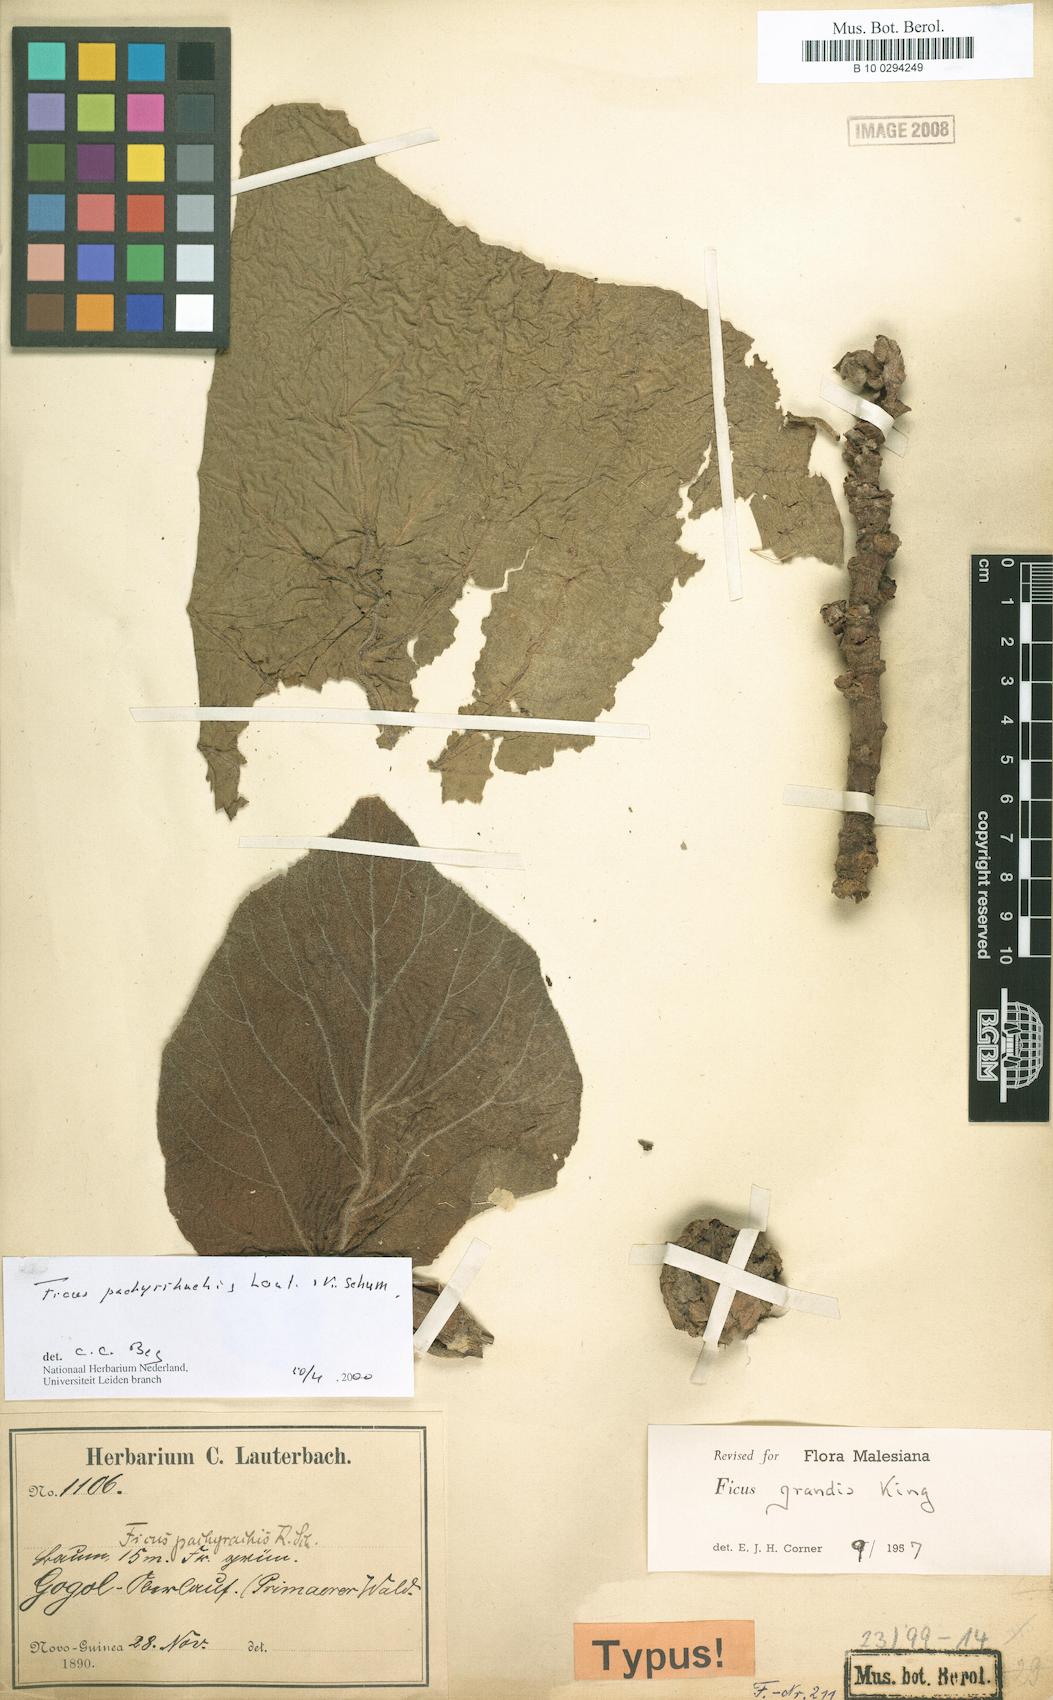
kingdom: Plantae
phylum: Tracheophyta
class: Magnoliopsida
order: Rosales
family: Moraceae
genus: Ficus
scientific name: Ficus pachyrrhachis
